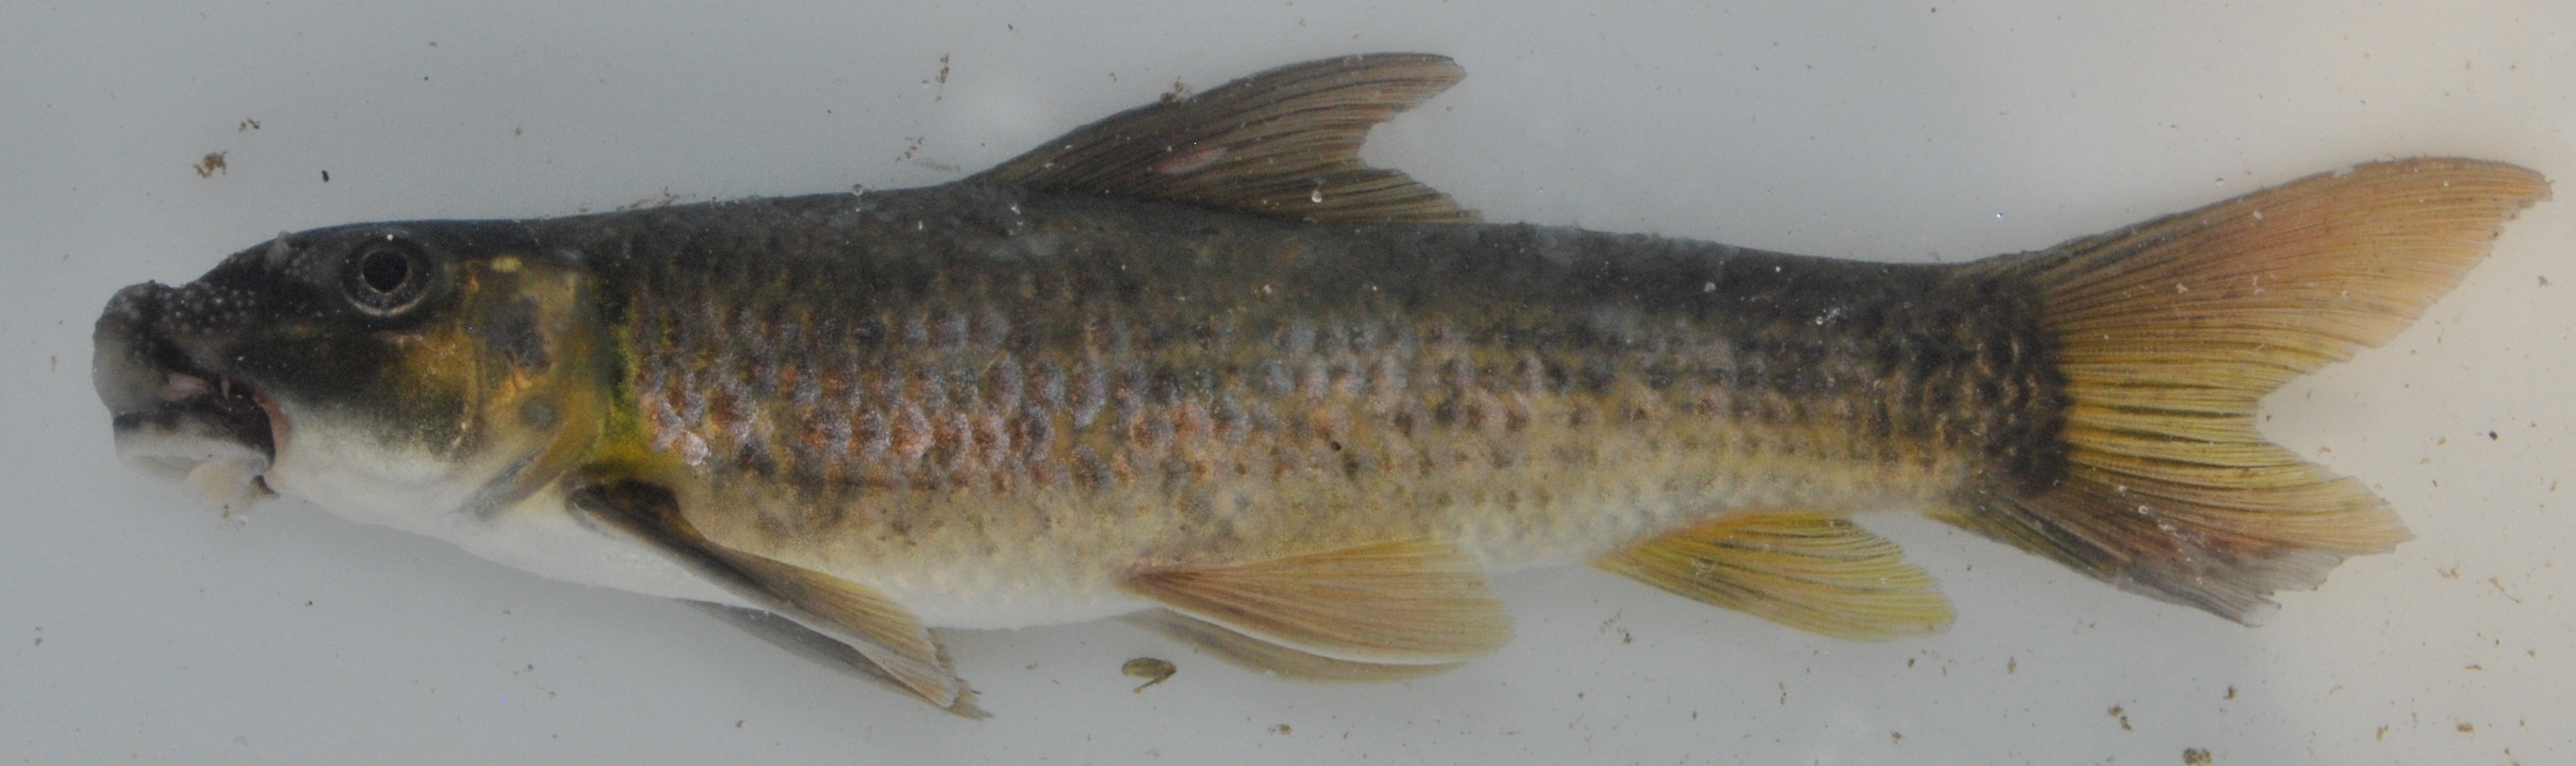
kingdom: Animalia
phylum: Chordata
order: Cypriniformes
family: Cyprinidae
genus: Labeo
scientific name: Labeo molybdinus
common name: Leaden labeo
